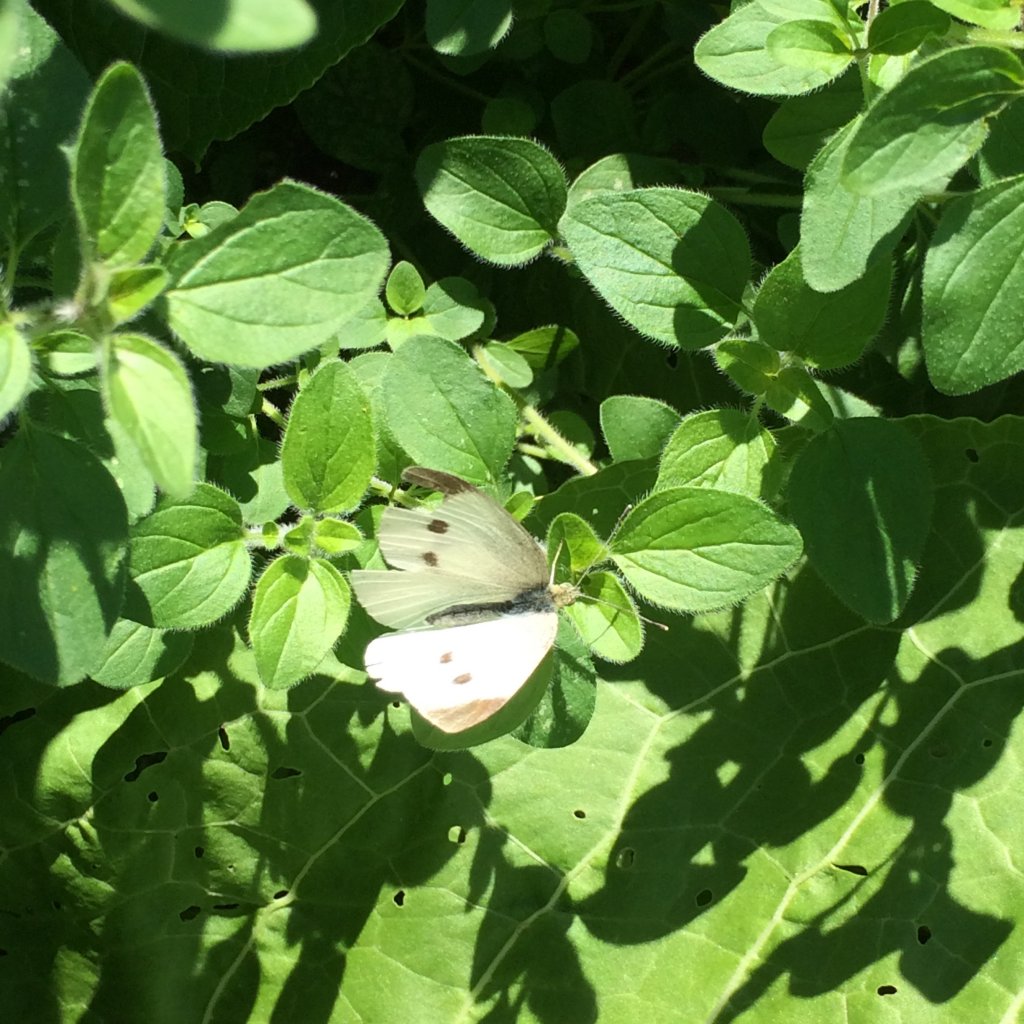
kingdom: Animalia
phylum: Arthropoda
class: Insecta
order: Lepidoptera
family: Pieridae
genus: Pieris
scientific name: Pieris rapae
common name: Cabbage White
